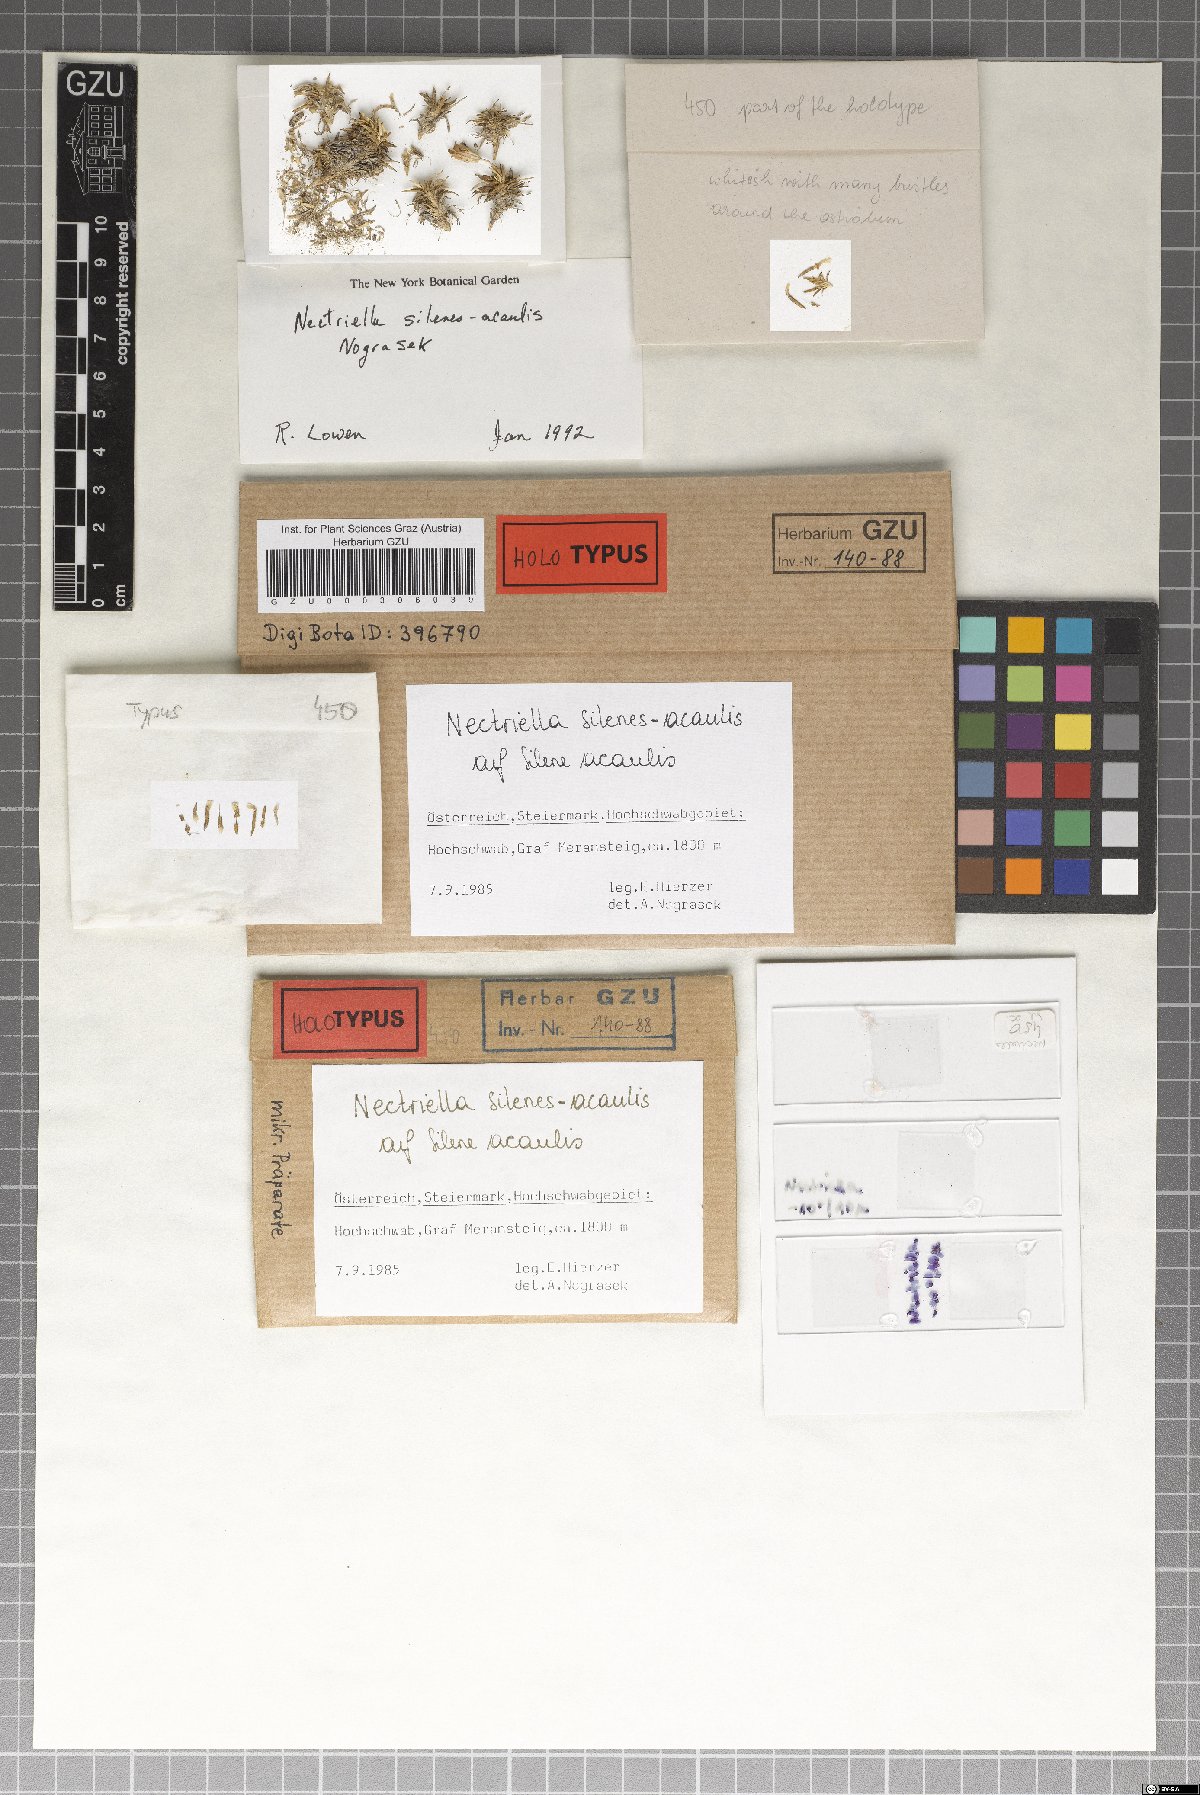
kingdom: Fungi
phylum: Ascomycota
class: Sordariomycetes
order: Hypocreales
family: Bionectriaceae
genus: Nectriella
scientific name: Nectriella silenes-acaulis
